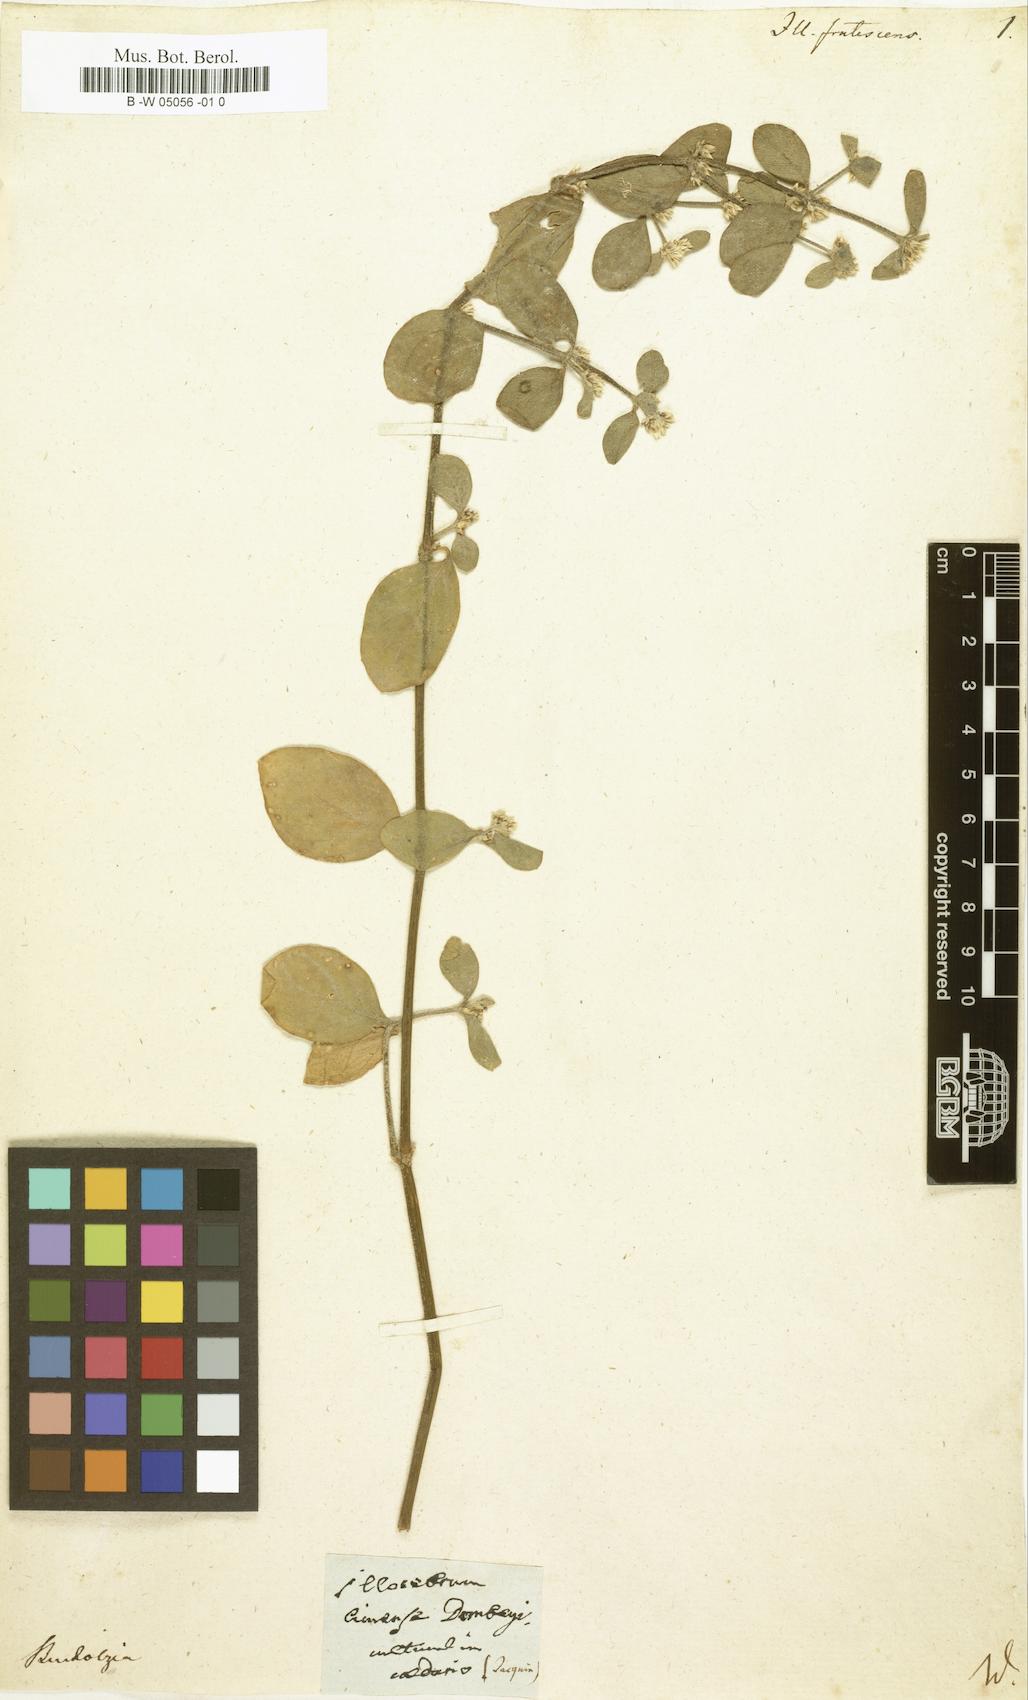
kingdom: Plantae
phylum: Tracheophyta
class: Magnoliopsida
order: Caryophyllales
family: Caryophyllaceae
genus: Polycarpon
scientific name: Polycarpon tetraphyllum
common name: Four-leaved all-seed
